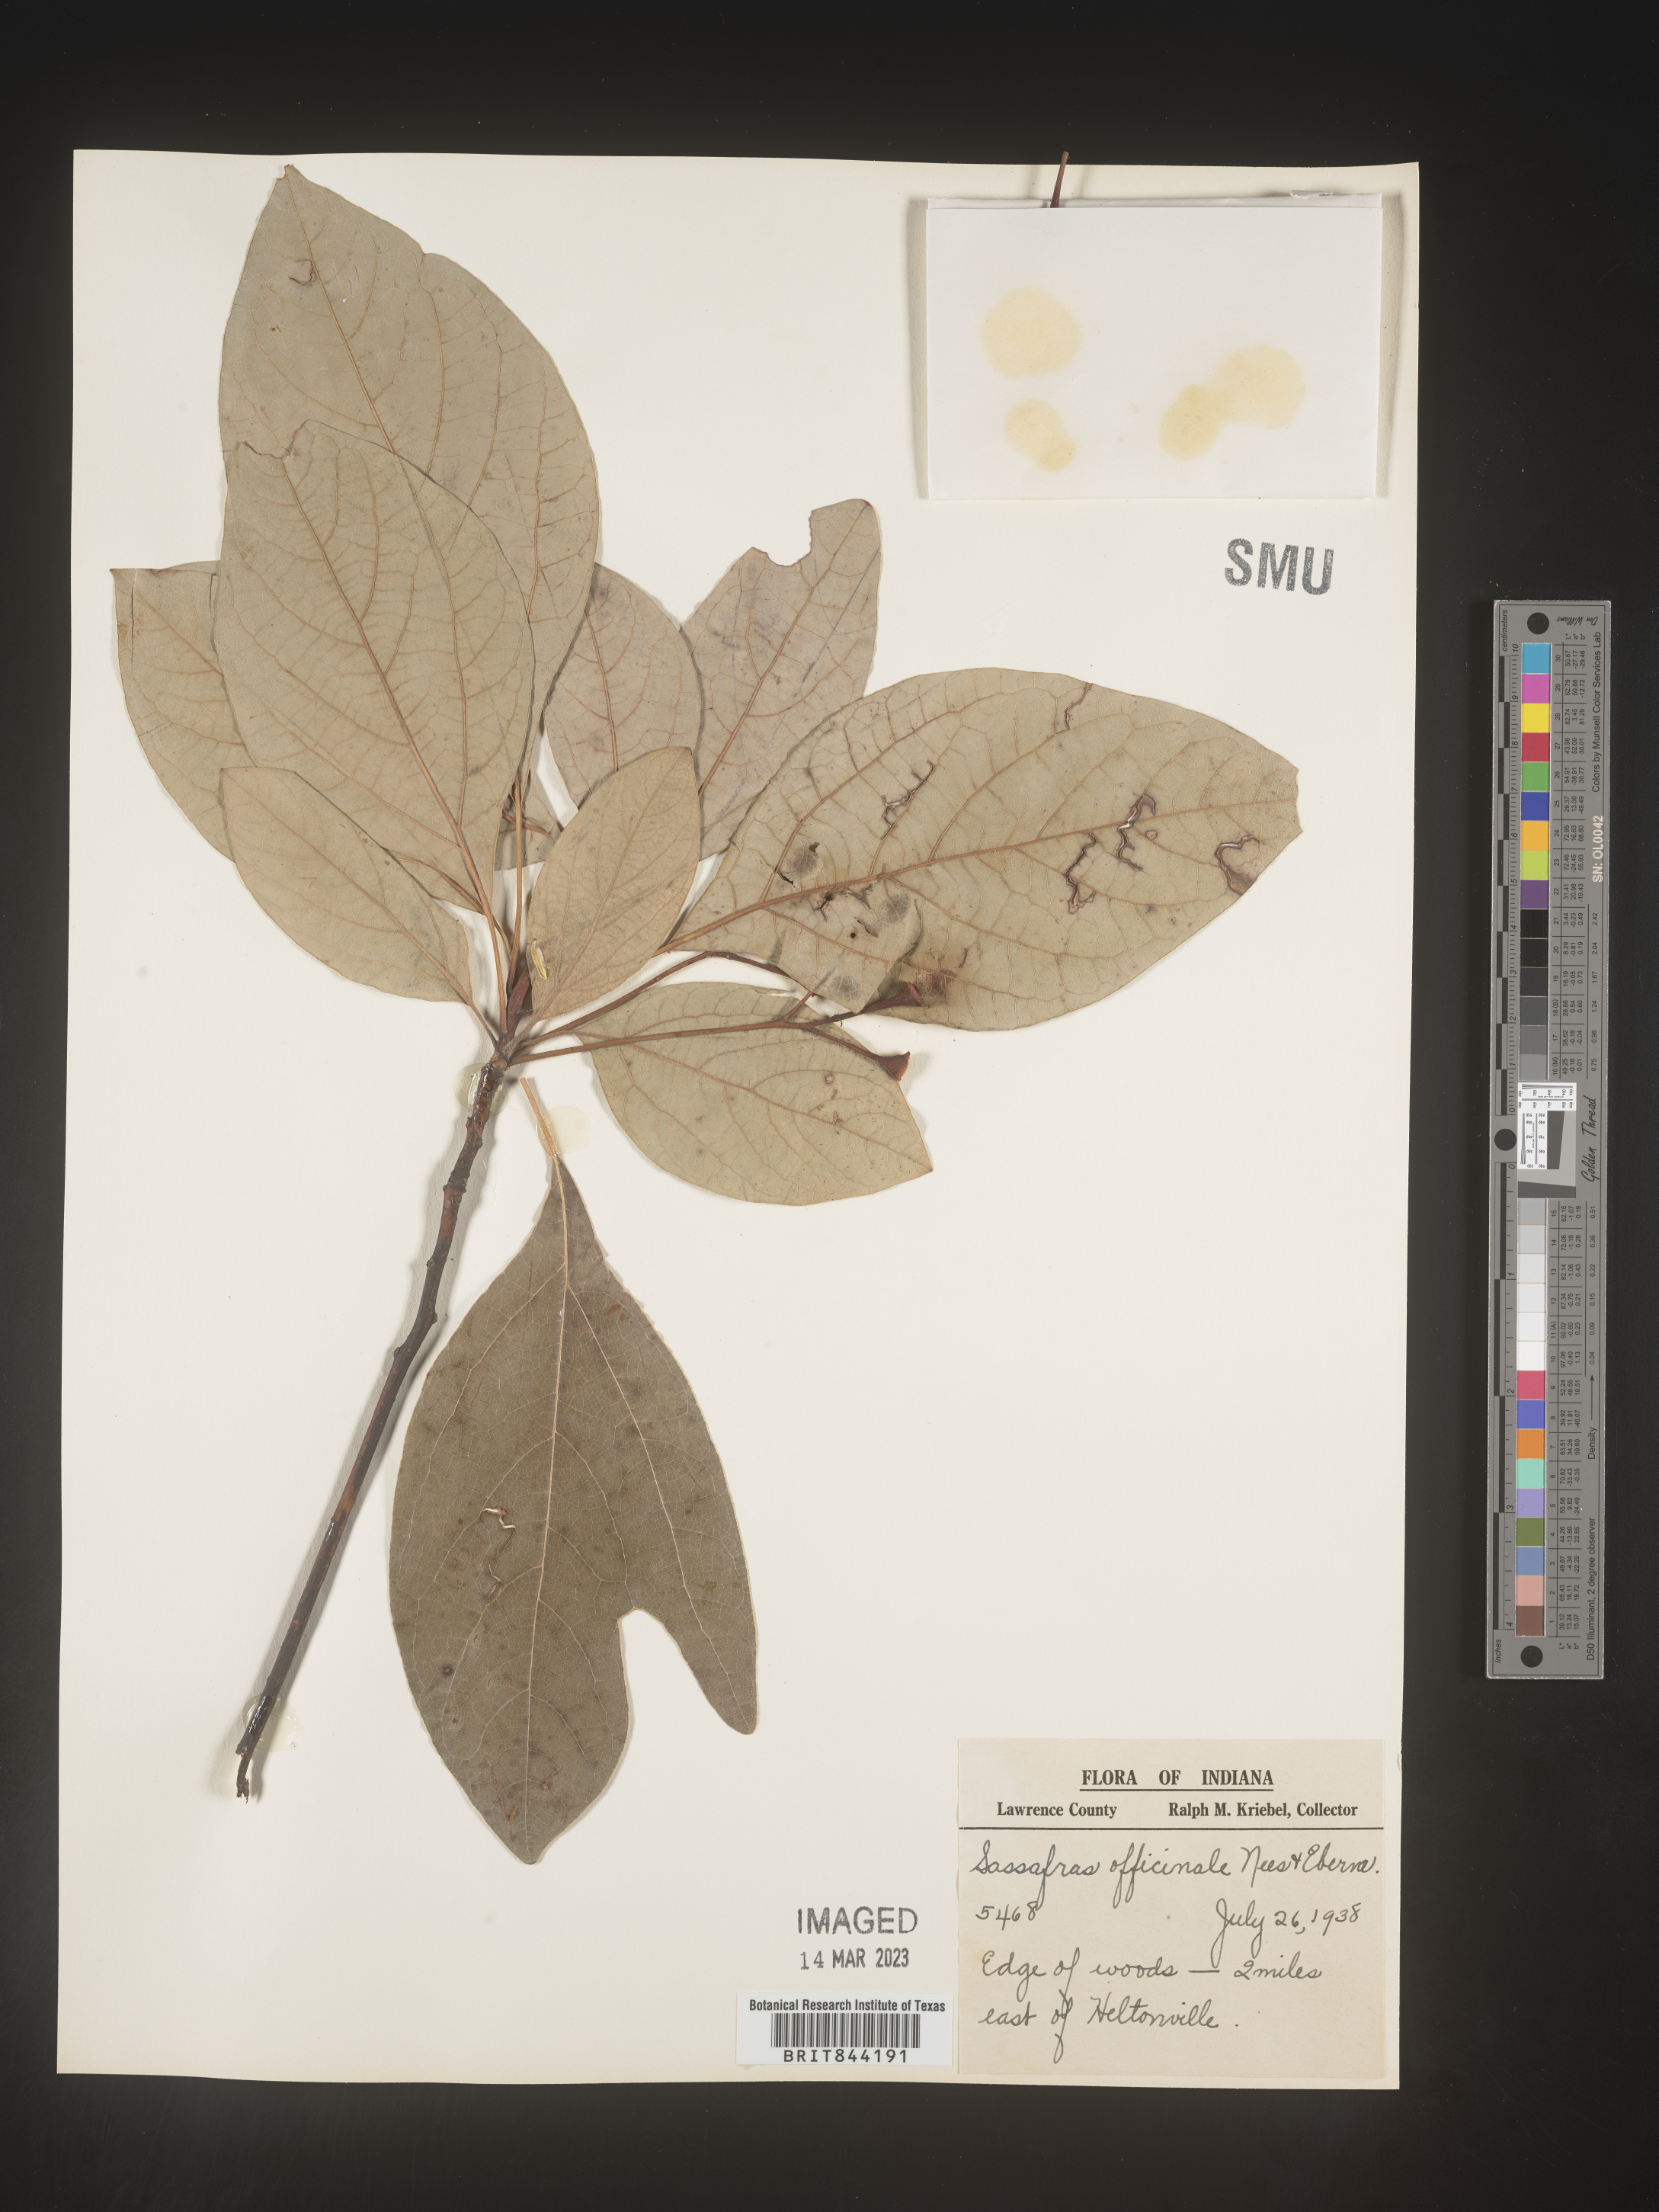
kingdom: Plantae
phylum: Tracheophyta
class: Magnoliopsida
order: Laurales
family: Lauraceae
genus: Sassafras
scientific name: Sassafras albidum
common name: Sassafras
